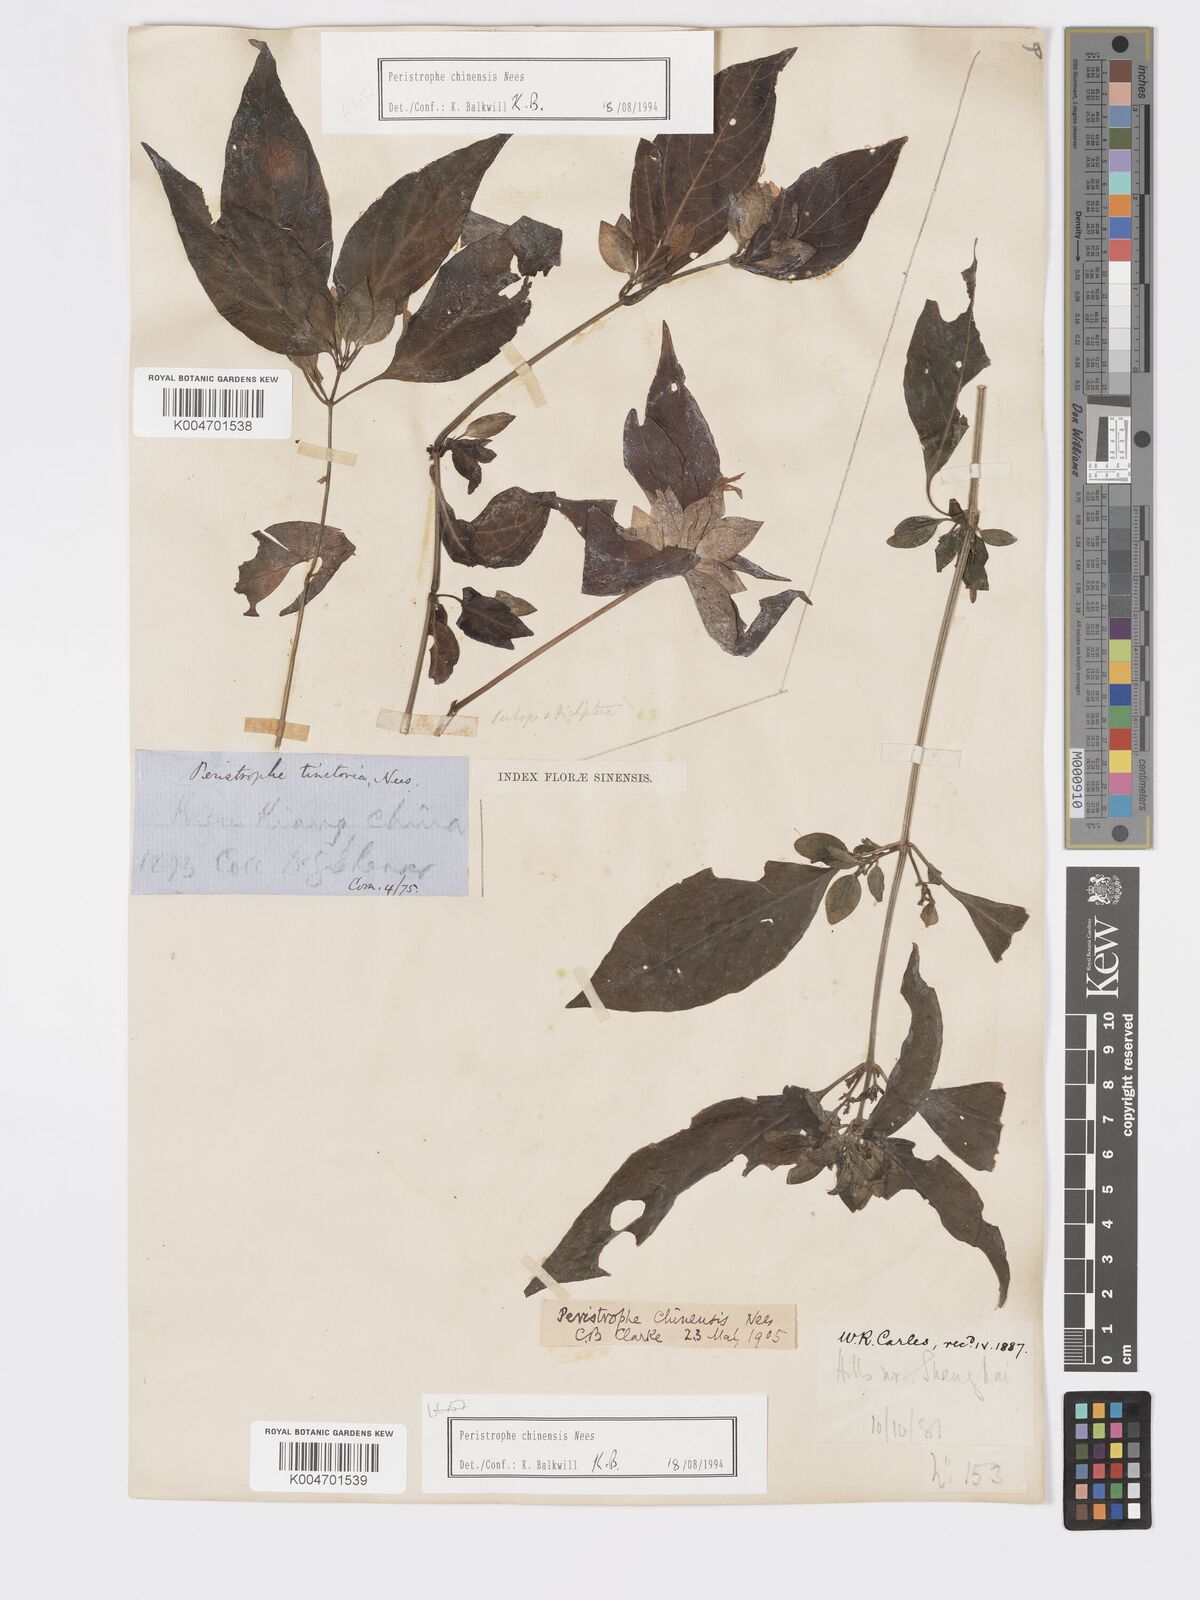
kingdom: Plantae
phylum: Tracheophyta
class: Magnoliopsida
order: Lamiales
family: Acanthaceae
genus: Dicliptera
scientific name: Dicliptera chinensis
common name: Chinese foldwing
